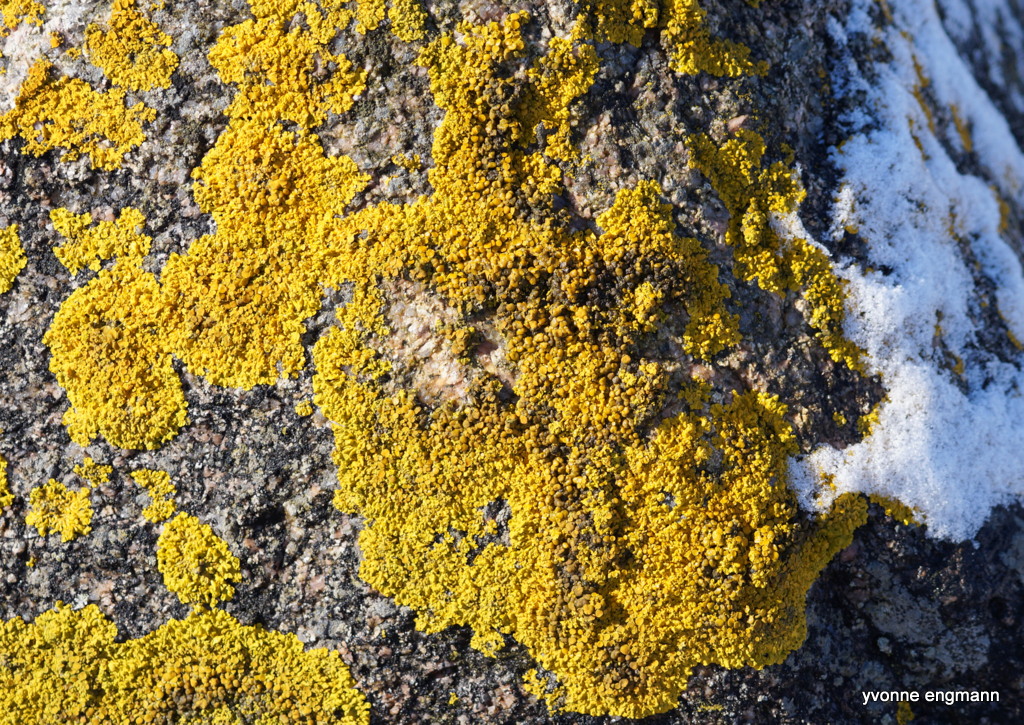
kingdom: Fungi
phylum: Ascomycota
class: Lecanoromycetes
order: Teloschistales
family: Teloschistaceae
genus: Xanthoria
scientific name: Xanthoria parietina
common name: almindelig væggelav
